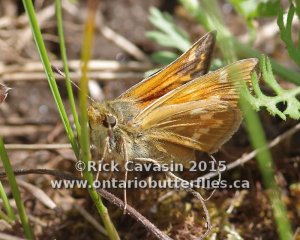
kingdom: Animalia
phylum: Arthropoda
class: Insecta
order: Lepidoptera
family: Hesperiidae
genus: Hesperia
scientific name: Hesperia sassacus
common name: Sassacus Skipper
